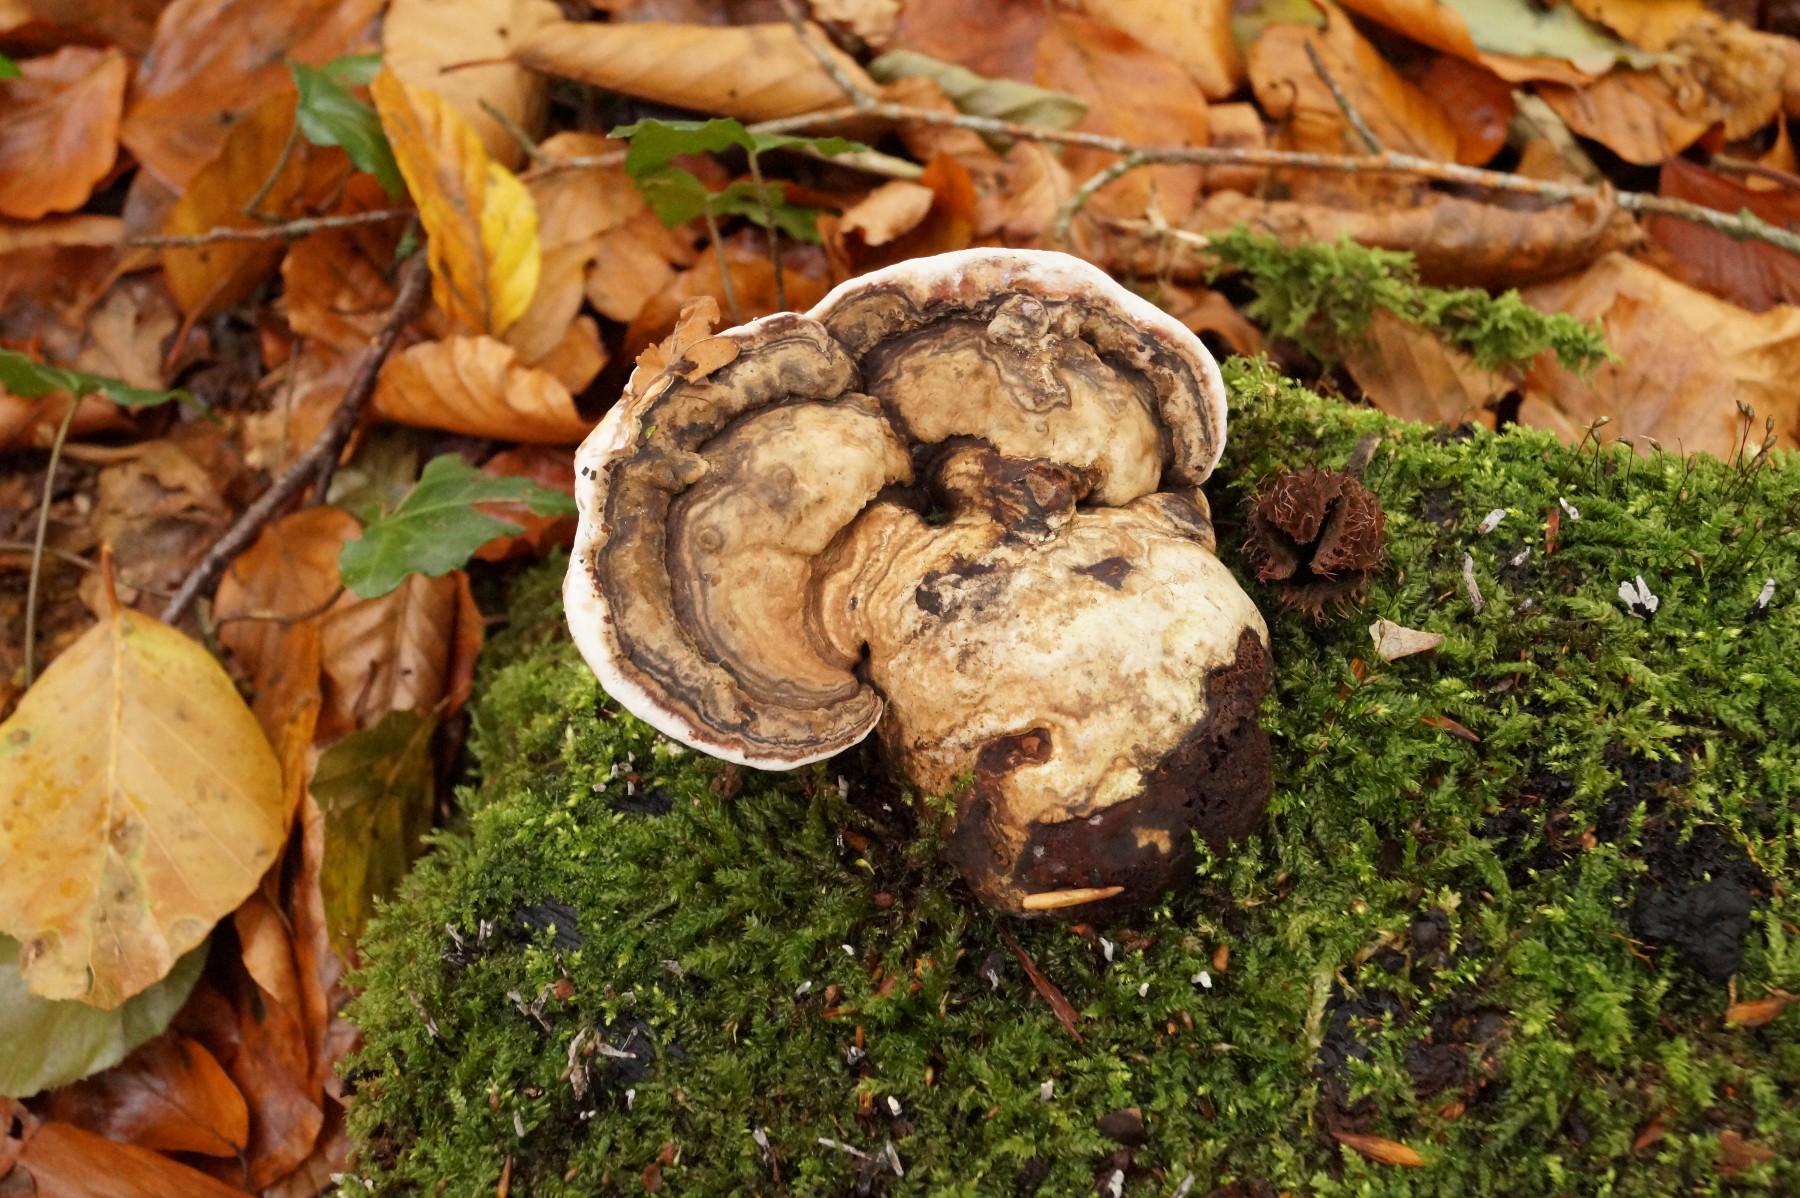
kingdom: Fungi
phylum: Basidiomycota
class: Agaricomycetes
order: Polyporales
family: Polyporaceae
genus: Ganoderma
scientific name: Ganoderma applanatum
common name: flad lakporesvamp
